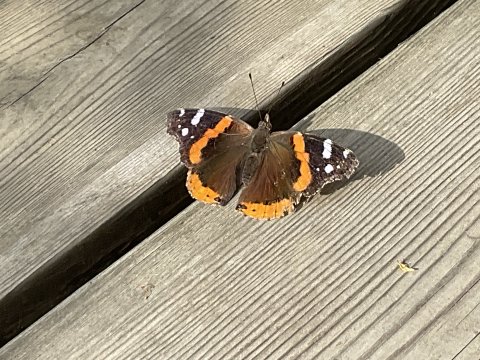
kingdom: Animalia
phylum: Arthropoda
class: Insecta
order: Lepidoptera
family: Nymphalidae
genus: Vanessa
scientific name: Vanessa atalanta
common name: Red Admiral
